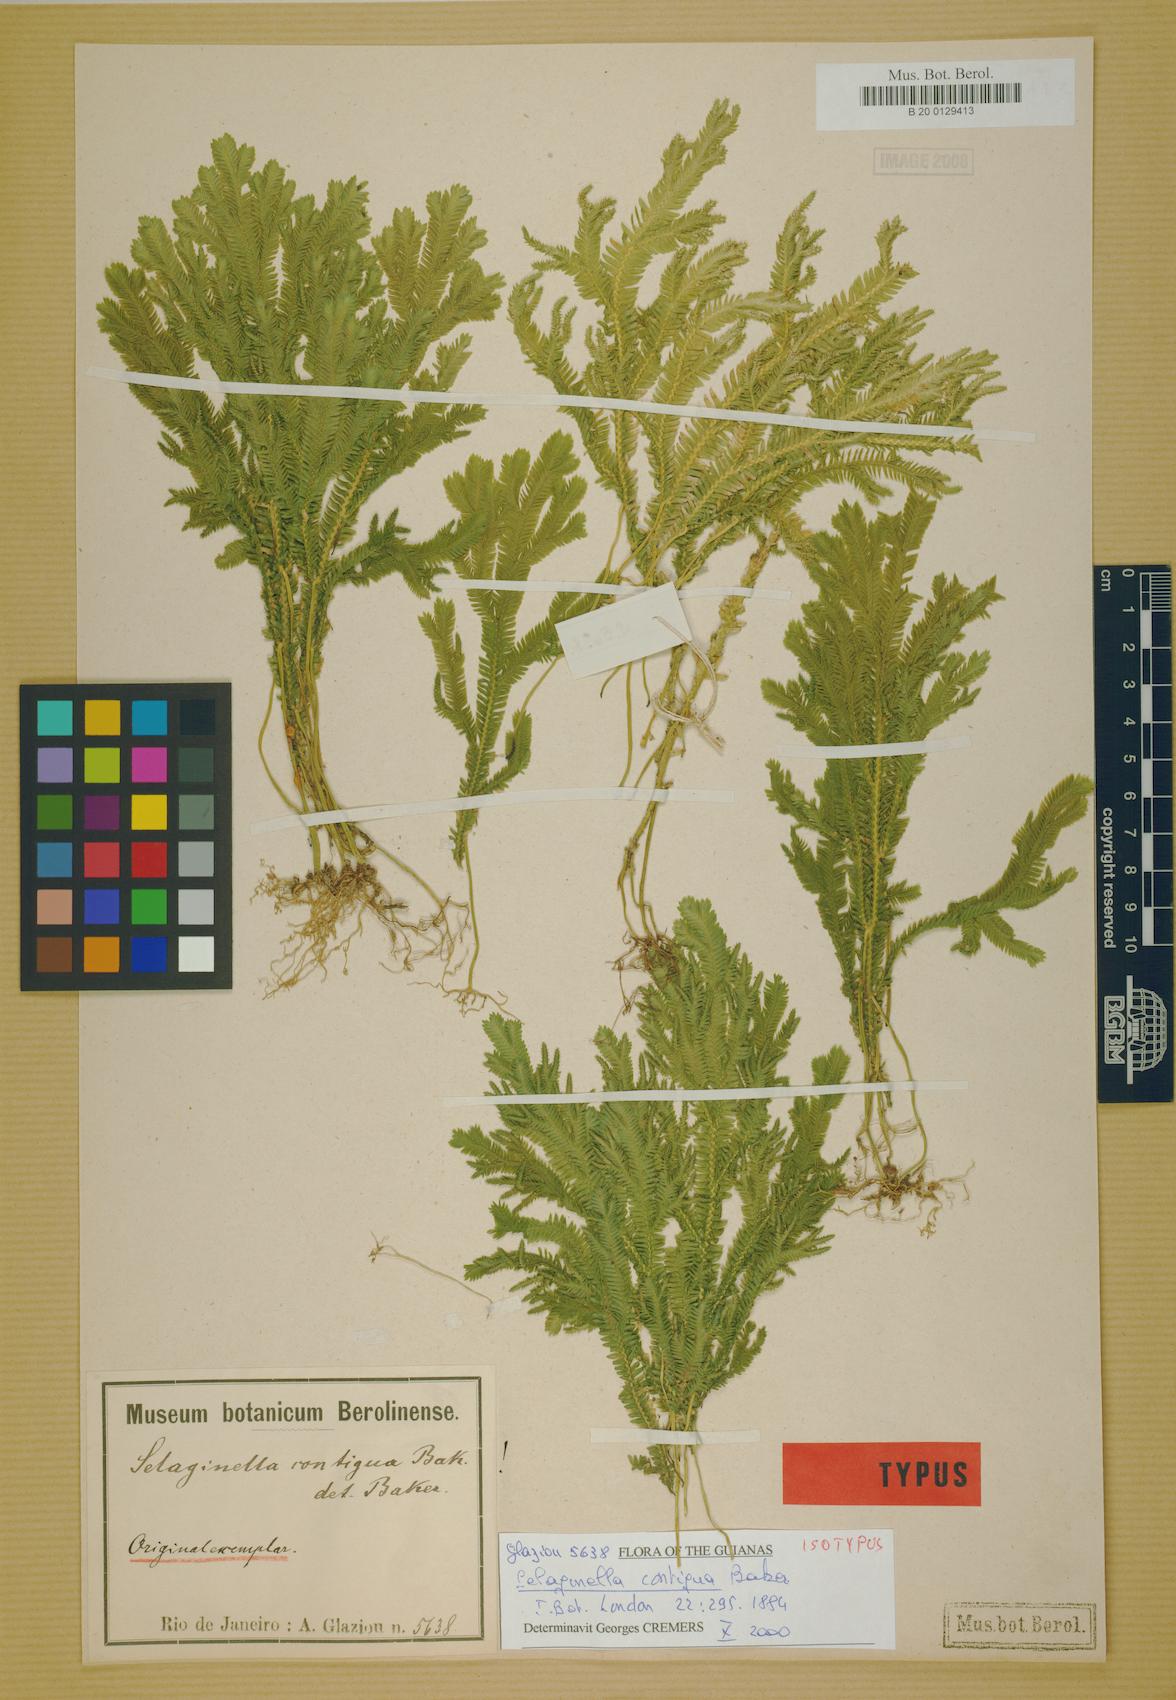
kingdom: Plantae
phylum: Tracheophyta
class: Lycopodiopsida
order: Selaginellales
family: Selaginellaceae
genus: Selaginella
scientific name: Selaginella contigua
